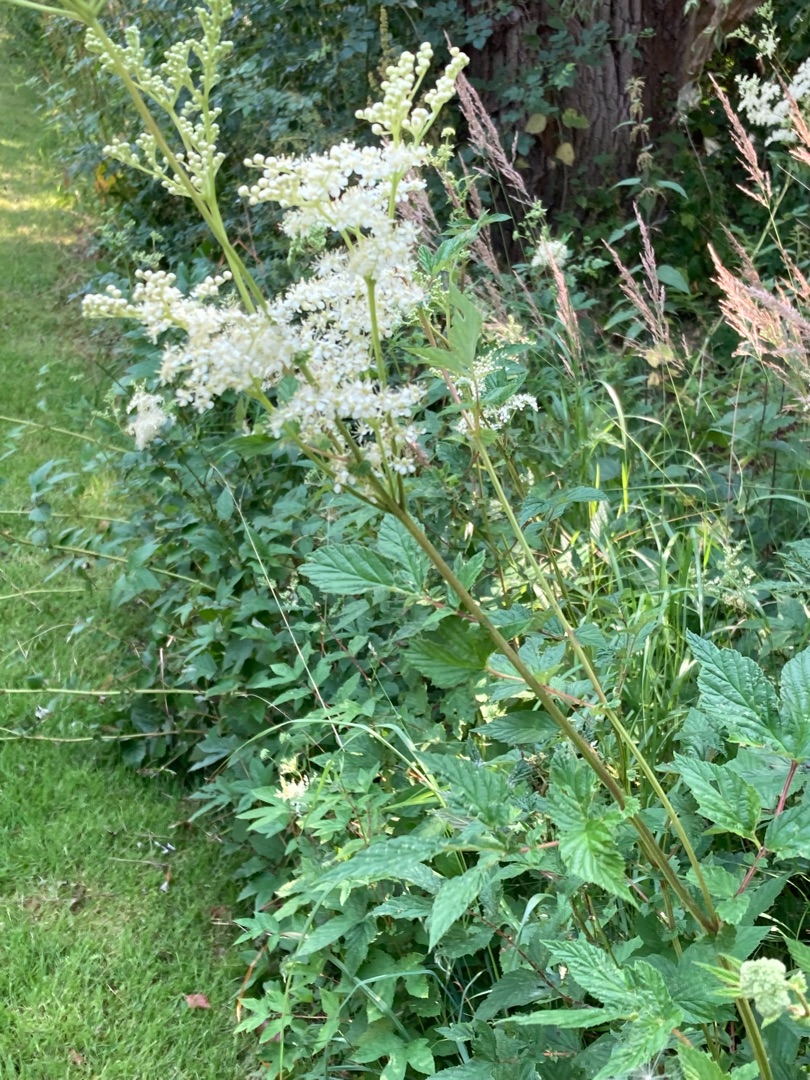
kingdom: Plantae
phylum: Tracheophyta
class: Magnoliopsida
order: Rosales
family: Rosaceae
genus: Filipendula
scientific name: Filipendula ulmaria
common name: Almindelig mjødurt
